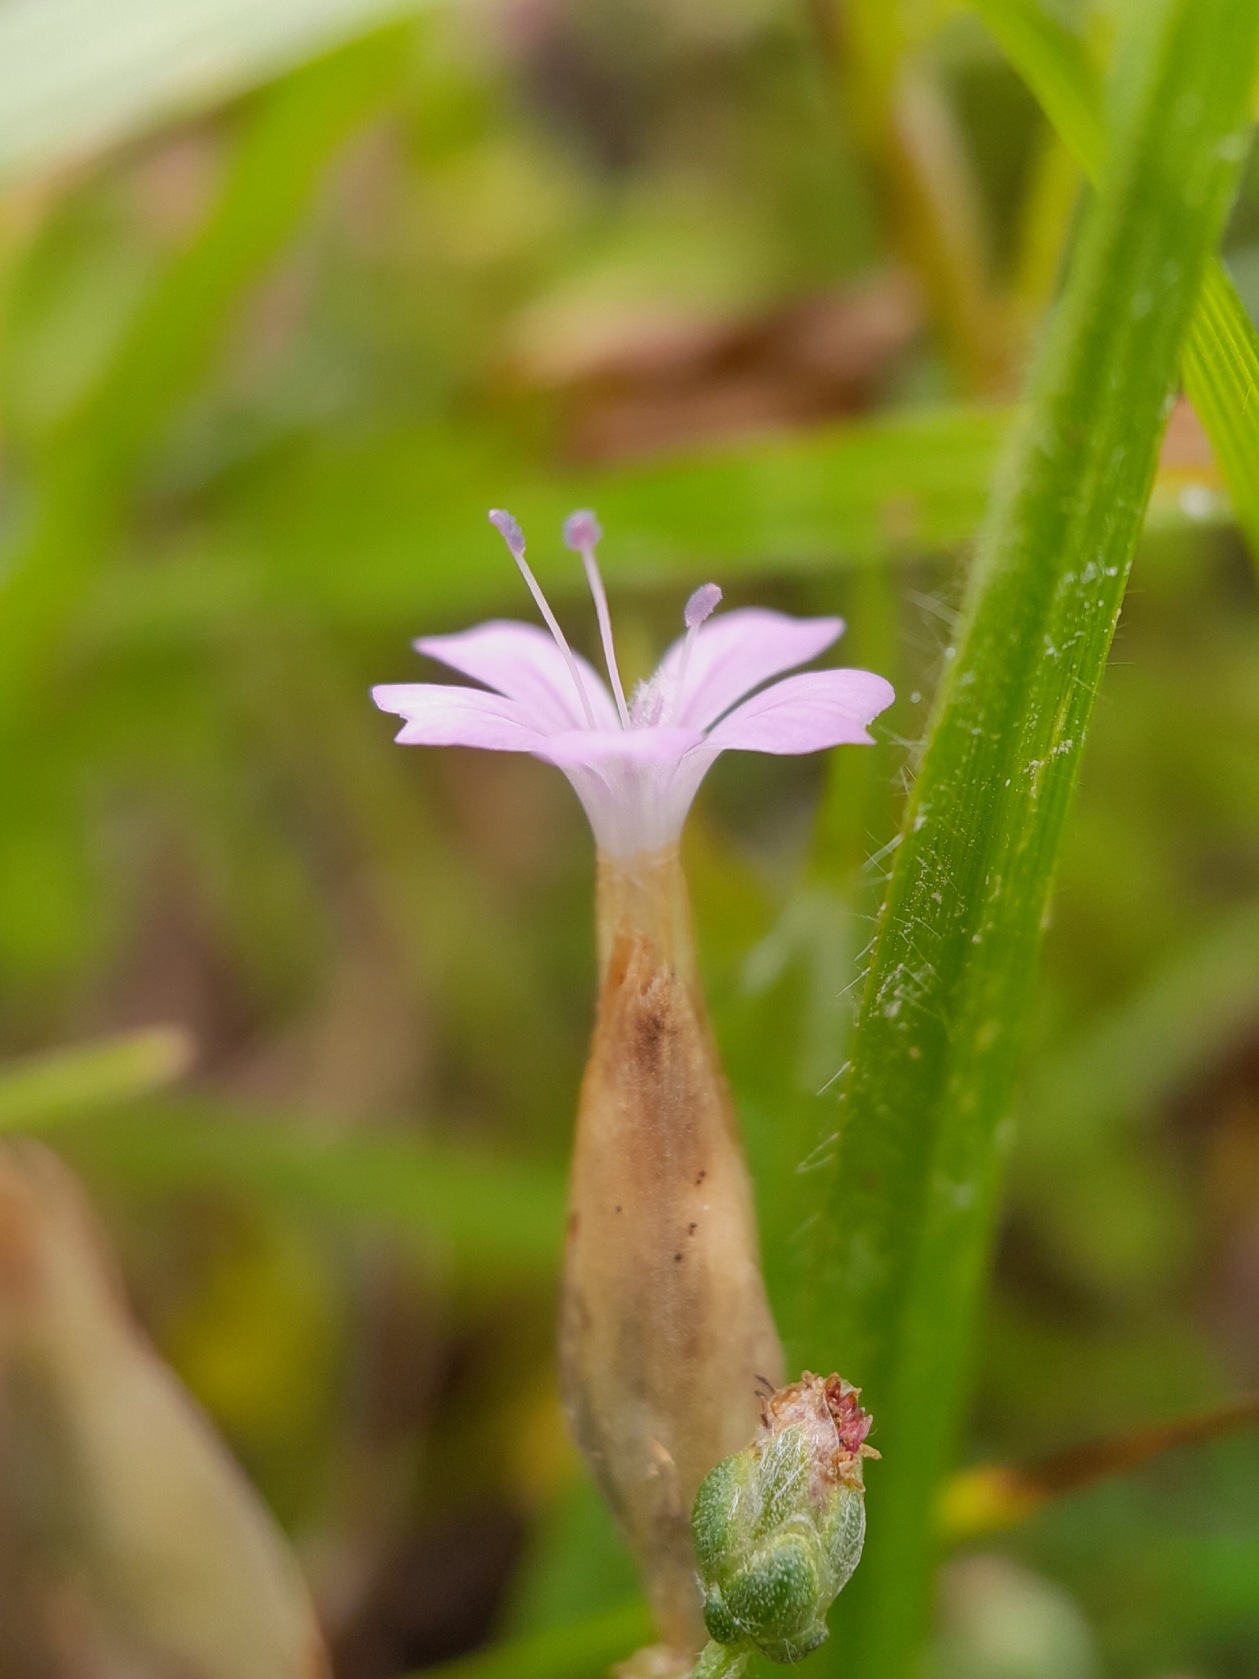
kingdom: Plantae
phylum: Tracheophyta
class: Magnoliopsida
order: Caryophyllales
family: Caryophyllaceae
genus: Petrorhagia
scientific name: Petrorhagia prolifera
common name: Knopnellike
